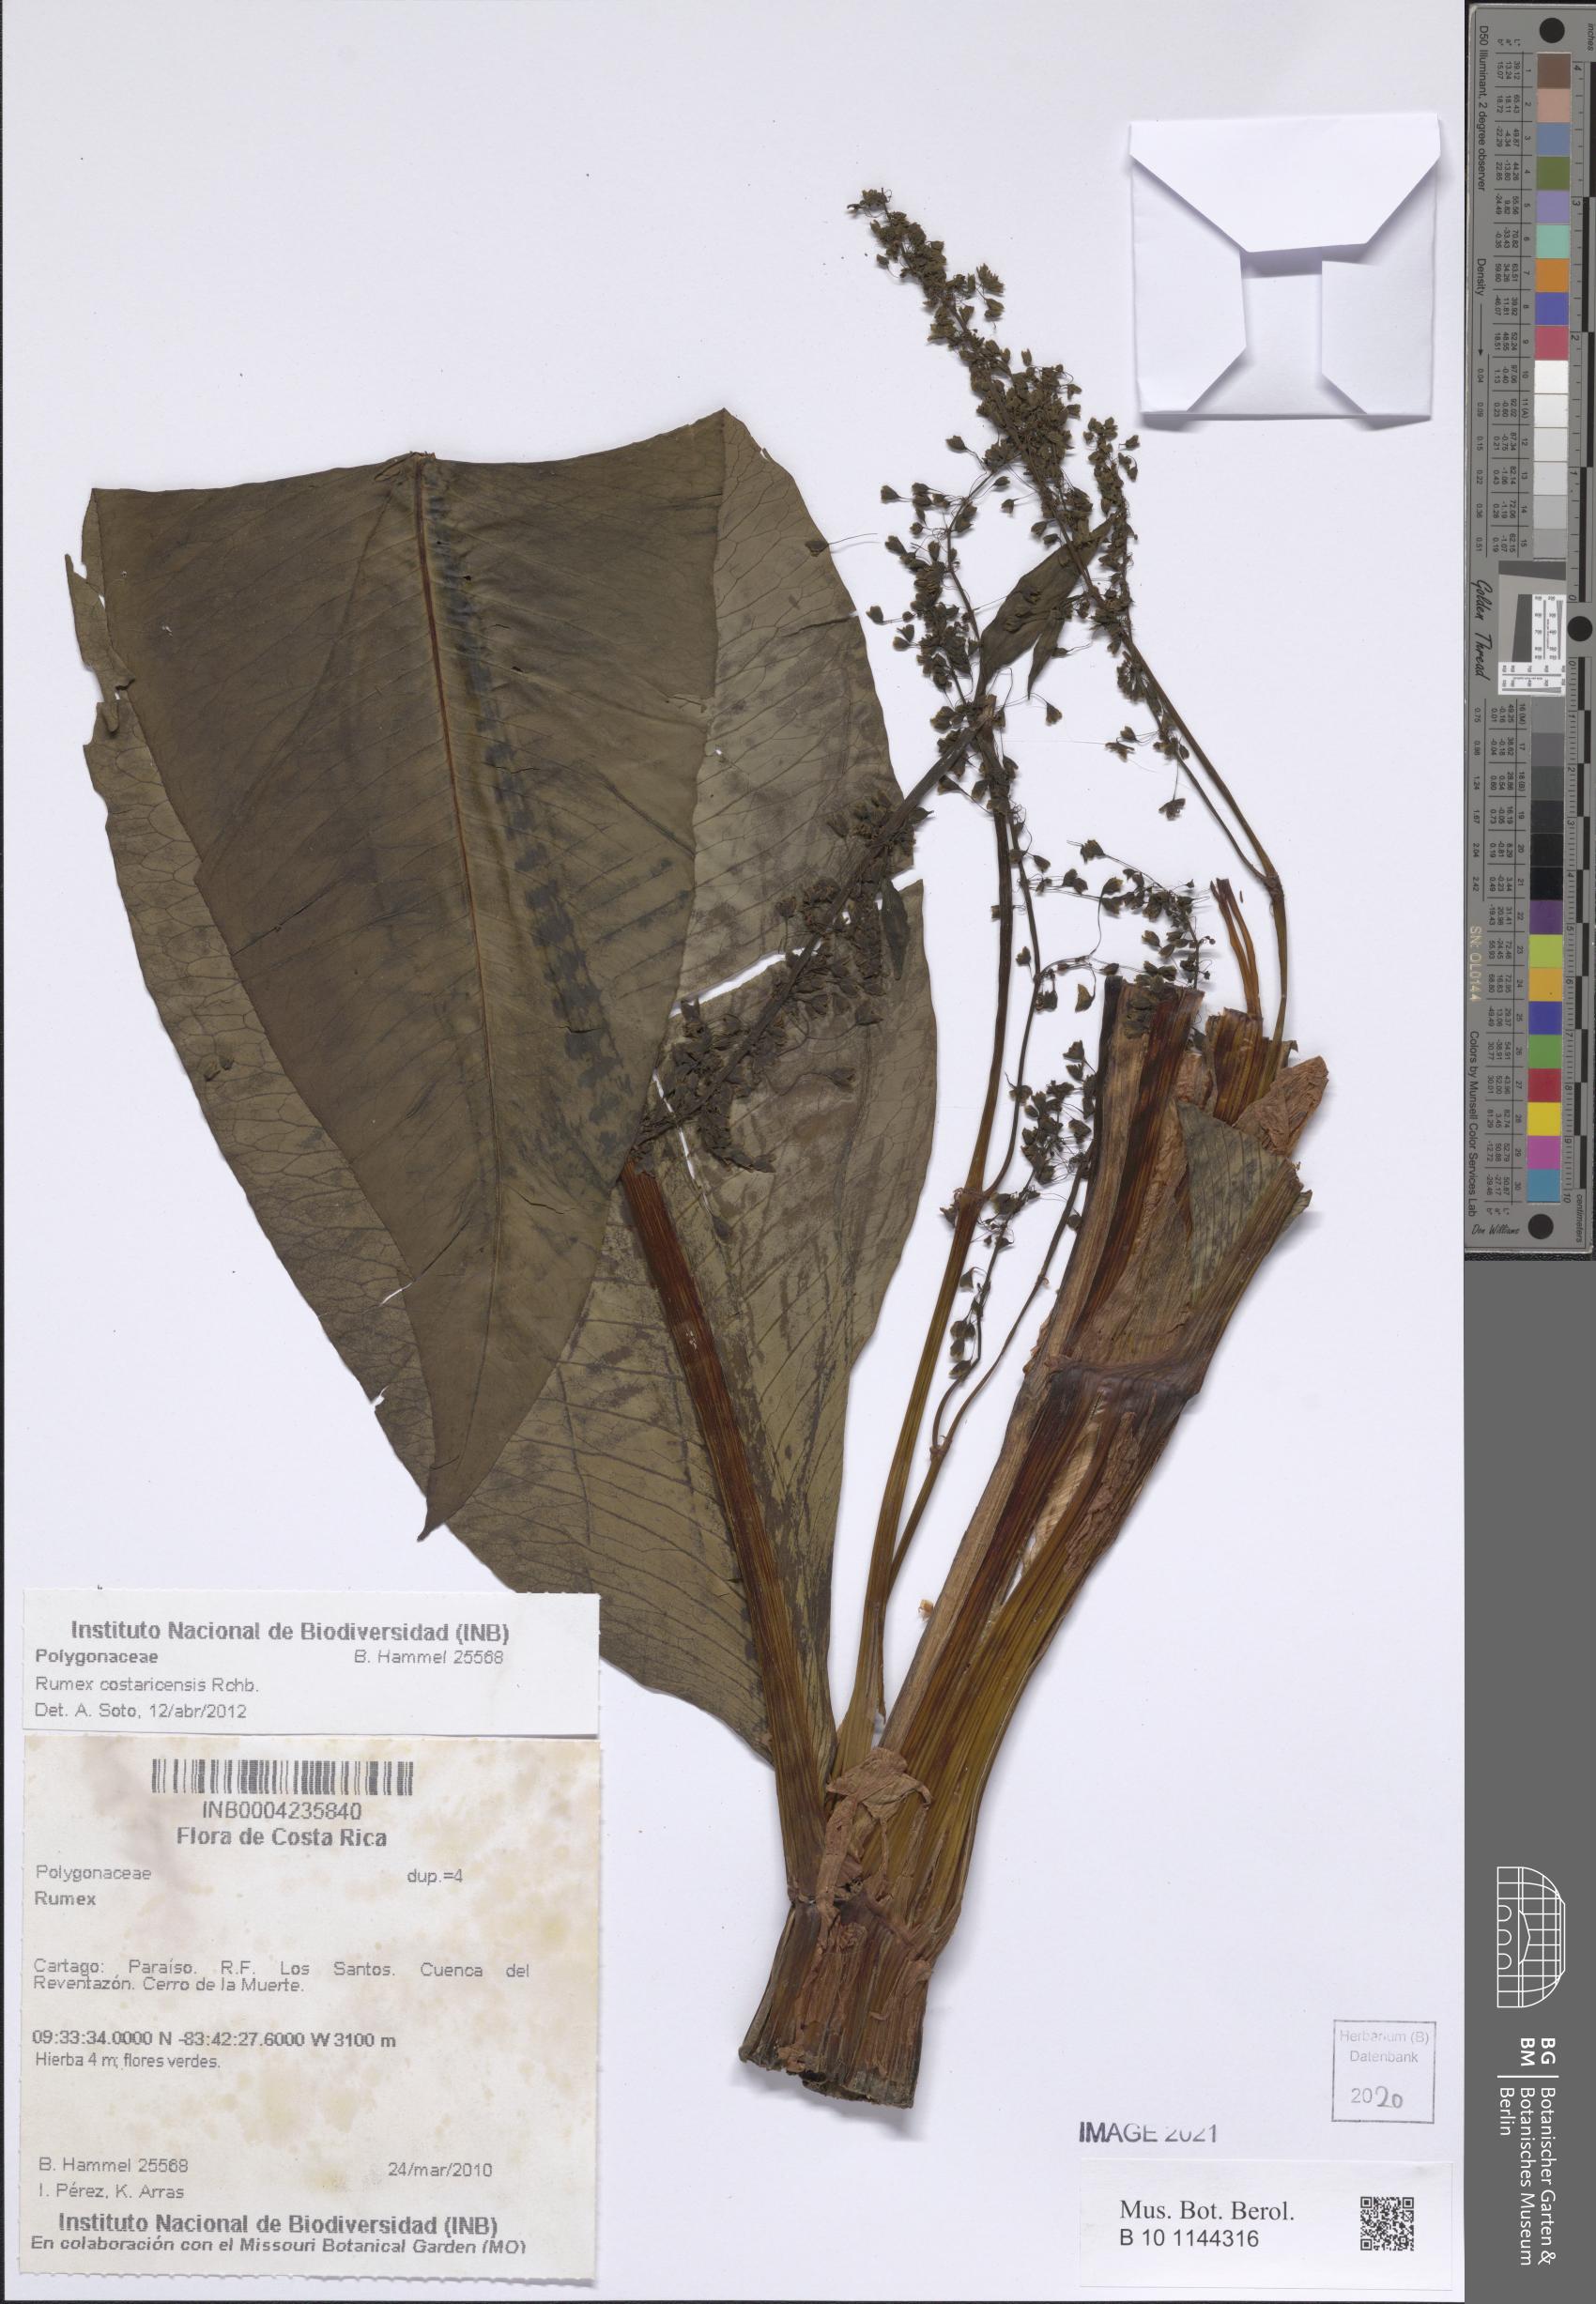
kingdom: Plantae
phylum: Tracheophyta
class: Magnoliopsida
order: Caryophyllales
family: Polygonaceae
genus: Rumex
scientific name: Rumex costaricensis
